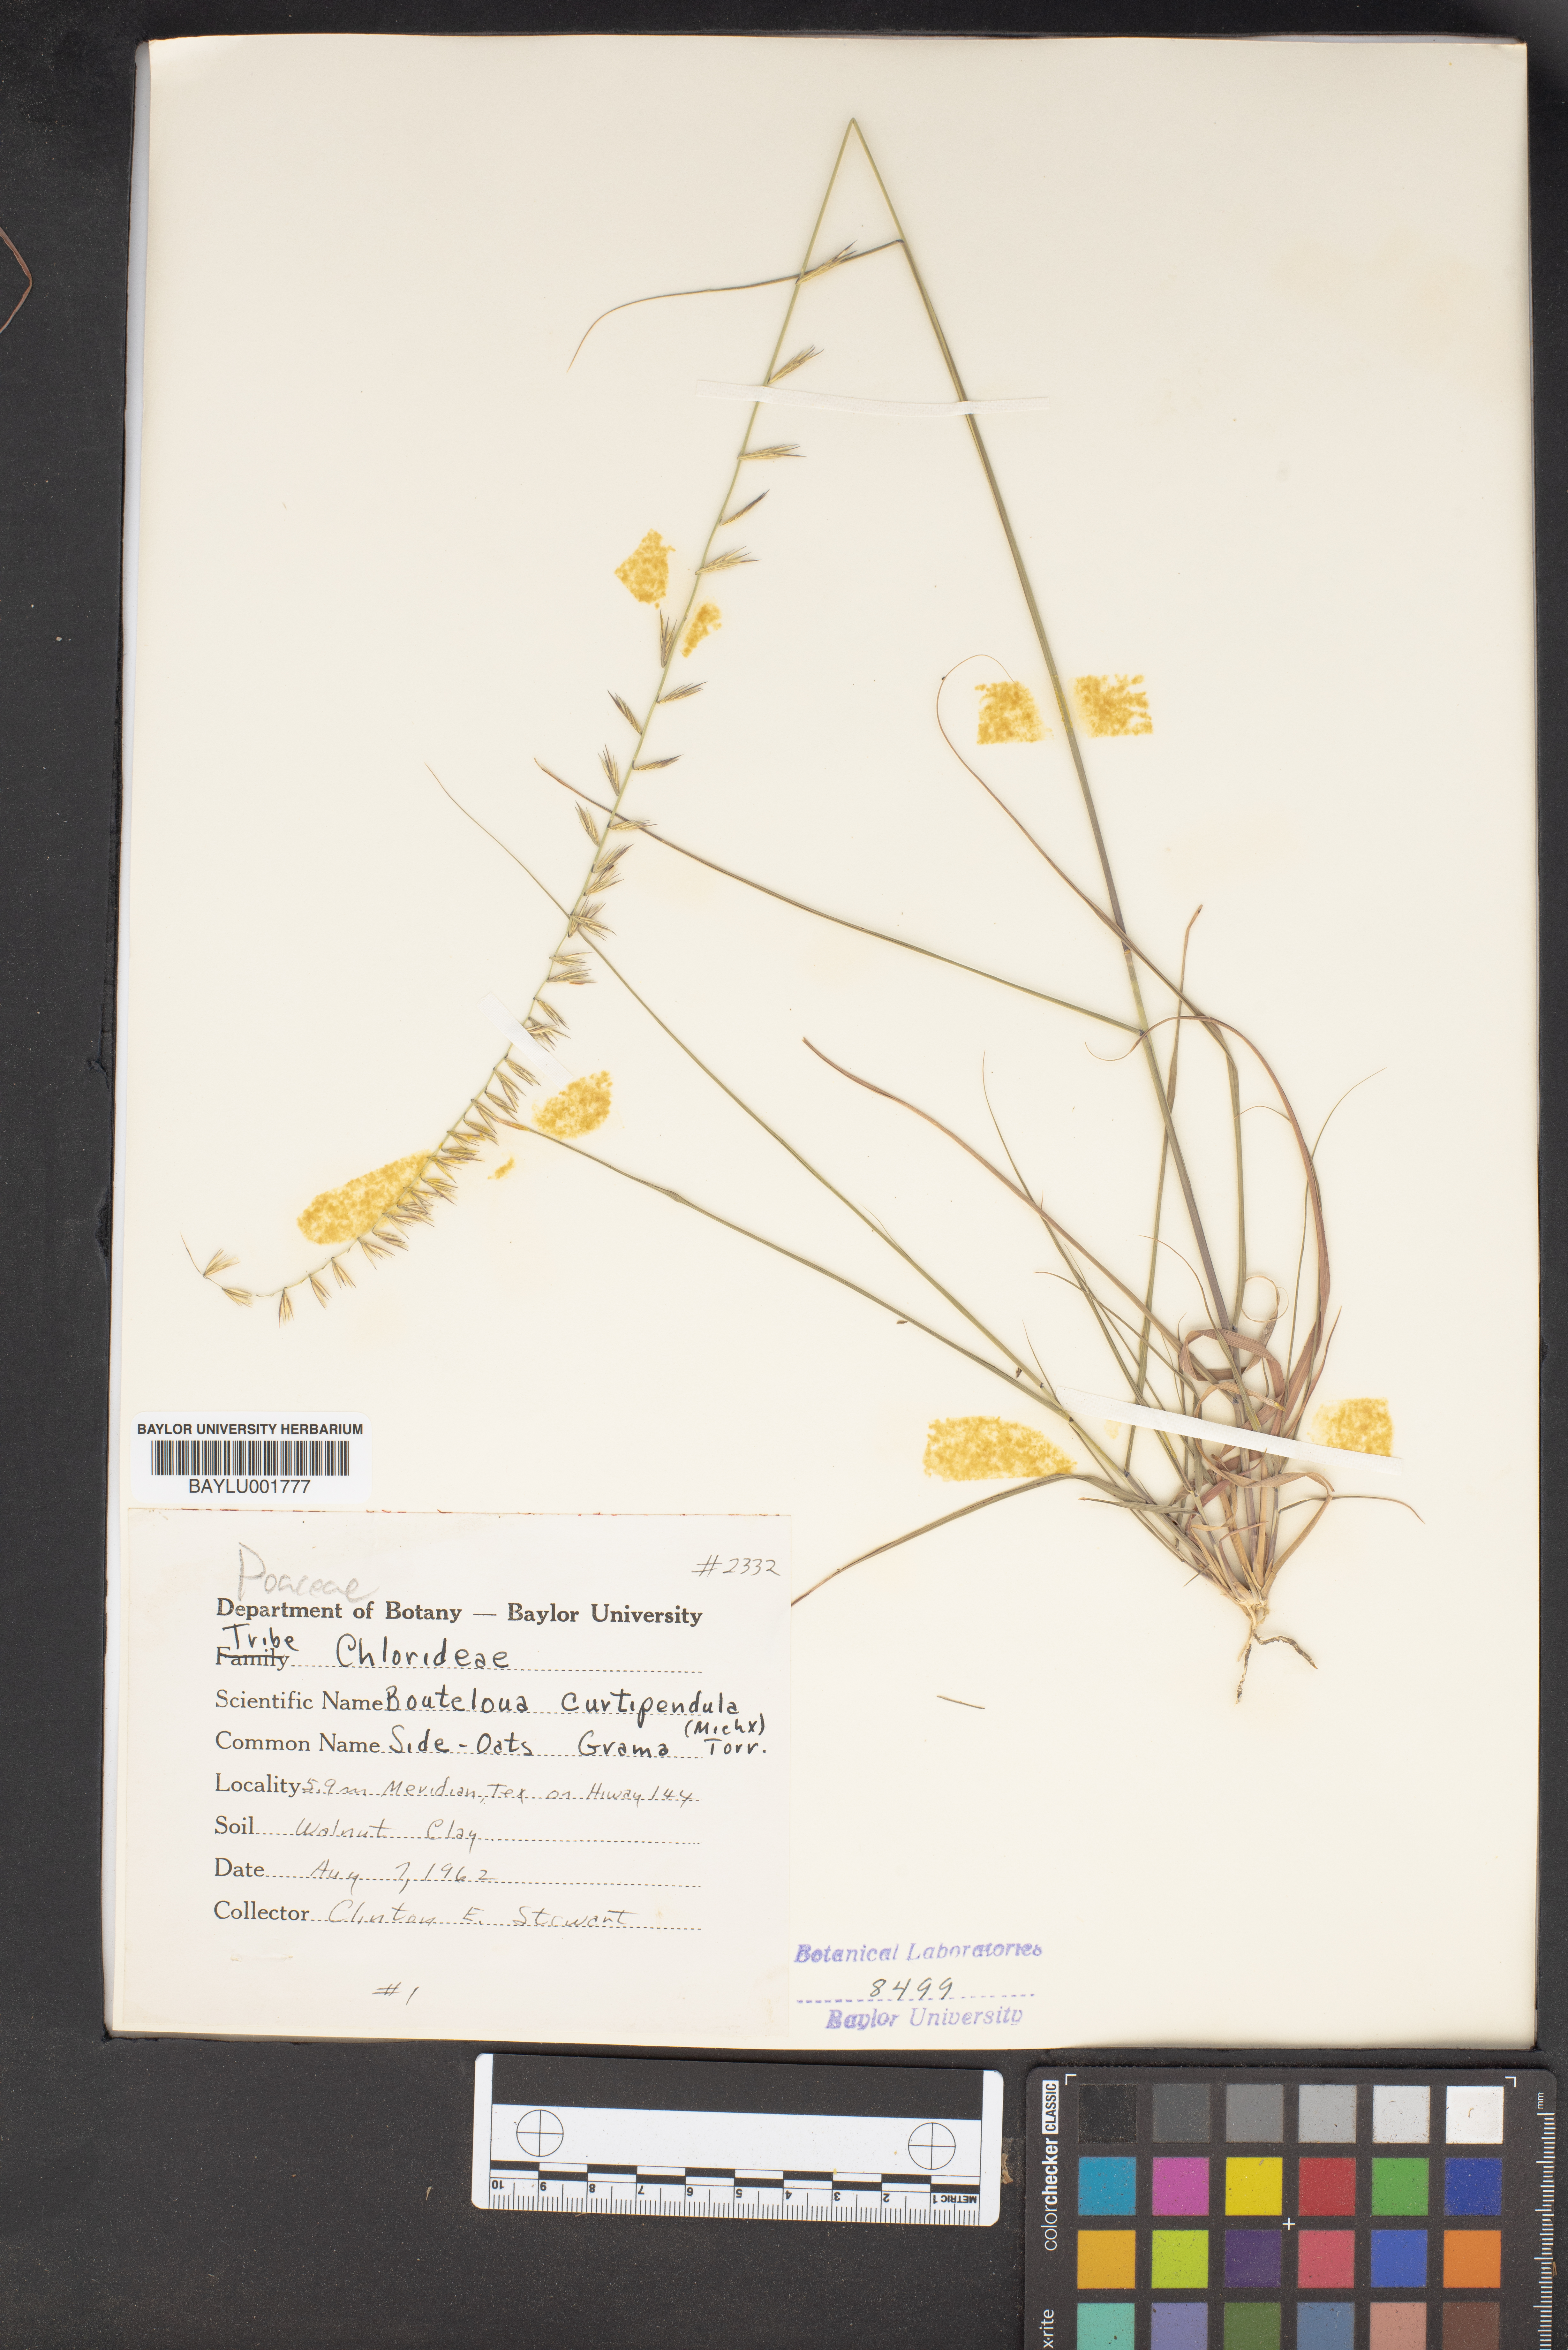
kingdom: Plantae
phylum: Tracheophyta
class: Liliopsida
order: Poales
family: Poaceae
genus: Bouteloua
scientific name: Bouteloua curtipendula
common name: Side-oats grama
